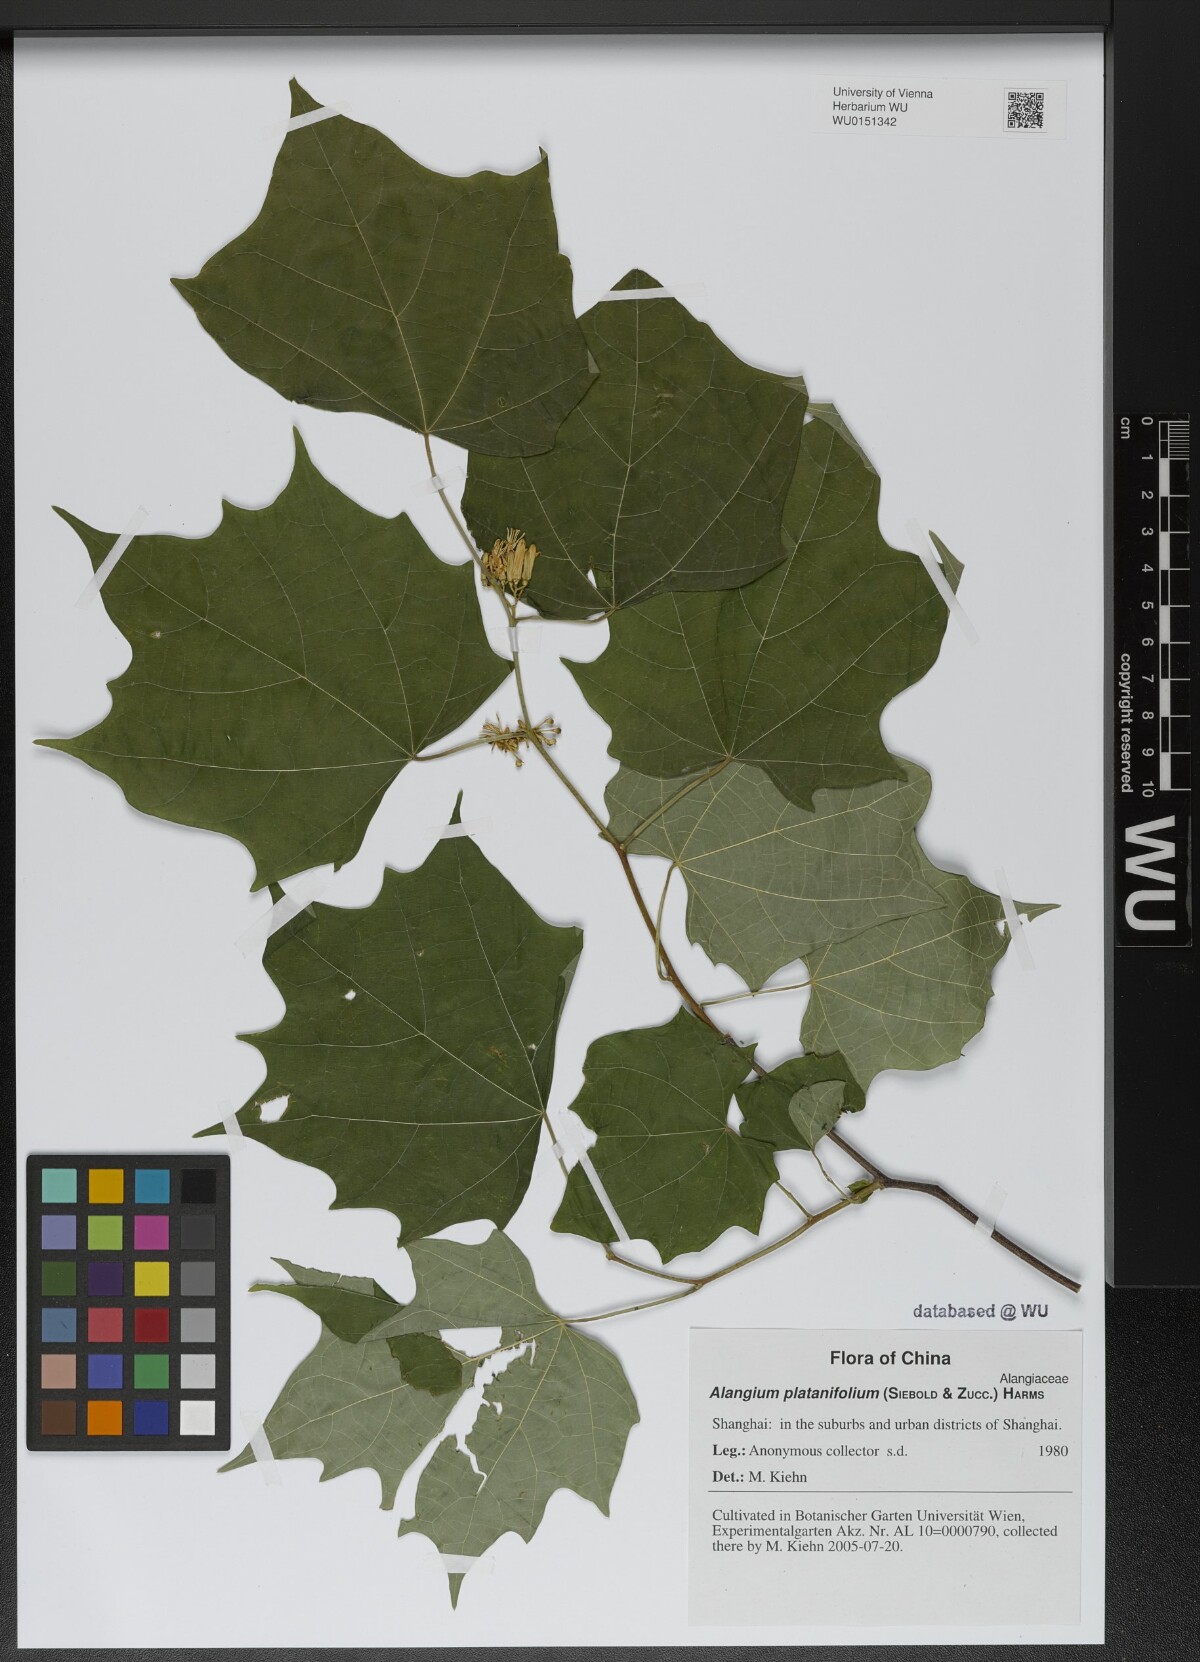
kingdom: Plantae
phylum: Tracheophyta
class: Magnoliopsida
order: Cornales
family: Cornaceae
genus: Alangium
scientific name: Alangium platanifolium
